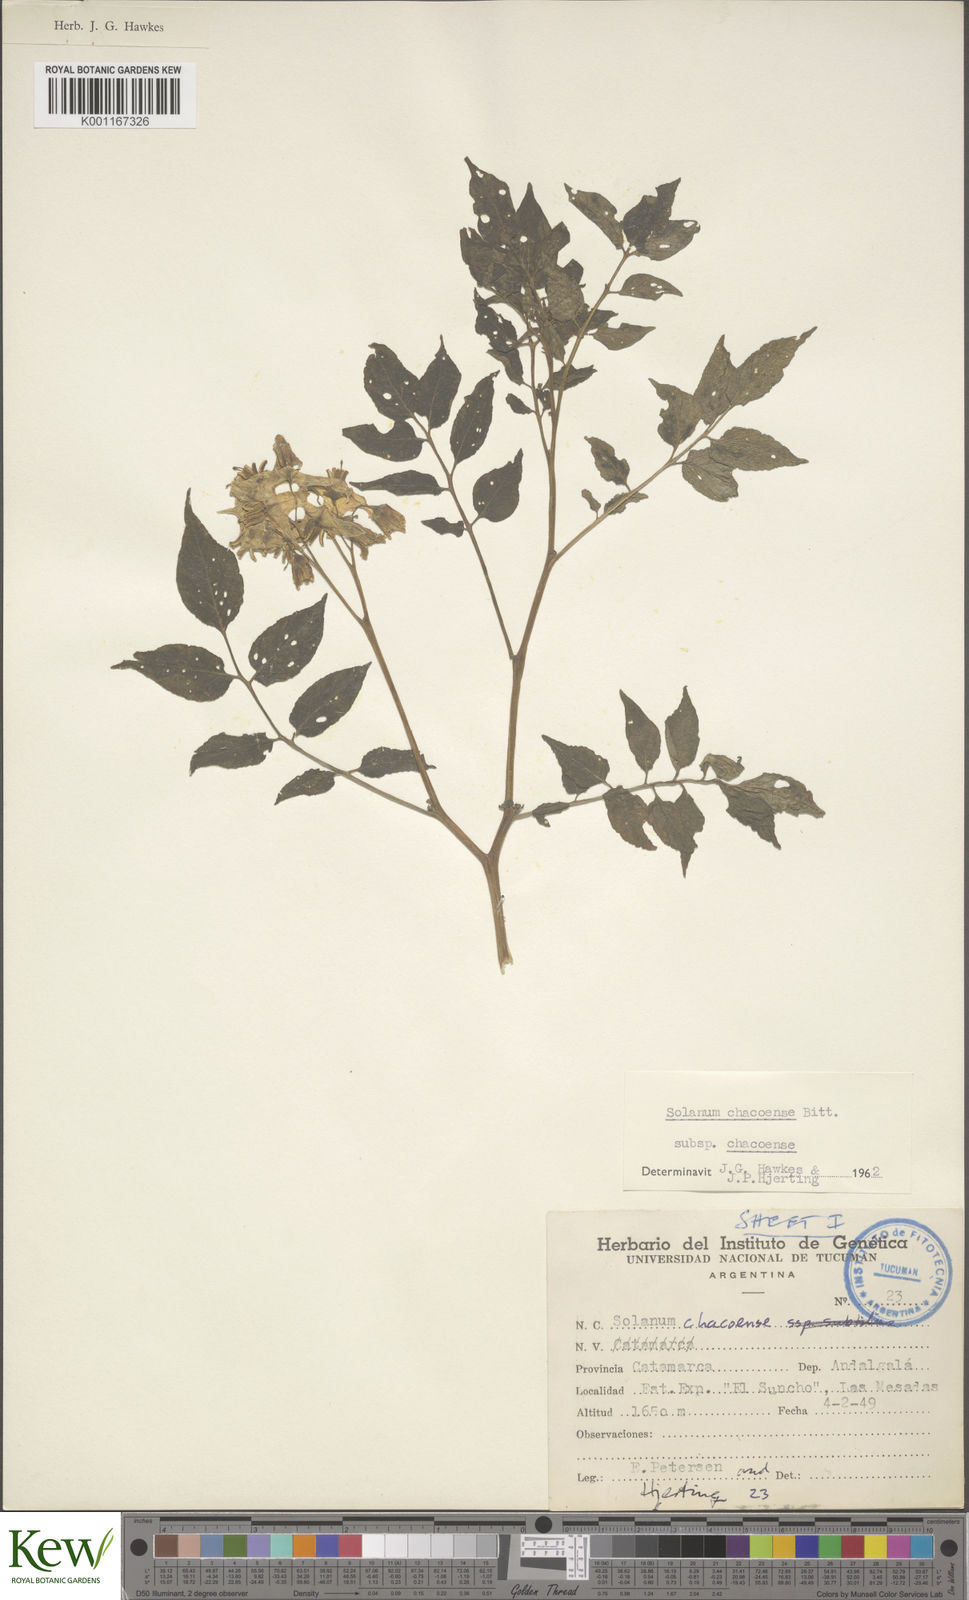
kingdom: Plantae
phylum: Tracheophyta
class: Magnoliopsida
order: Solanales
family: Solanaceae
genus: Solanum
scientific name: Solanum chacoense
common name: Chaco potato
